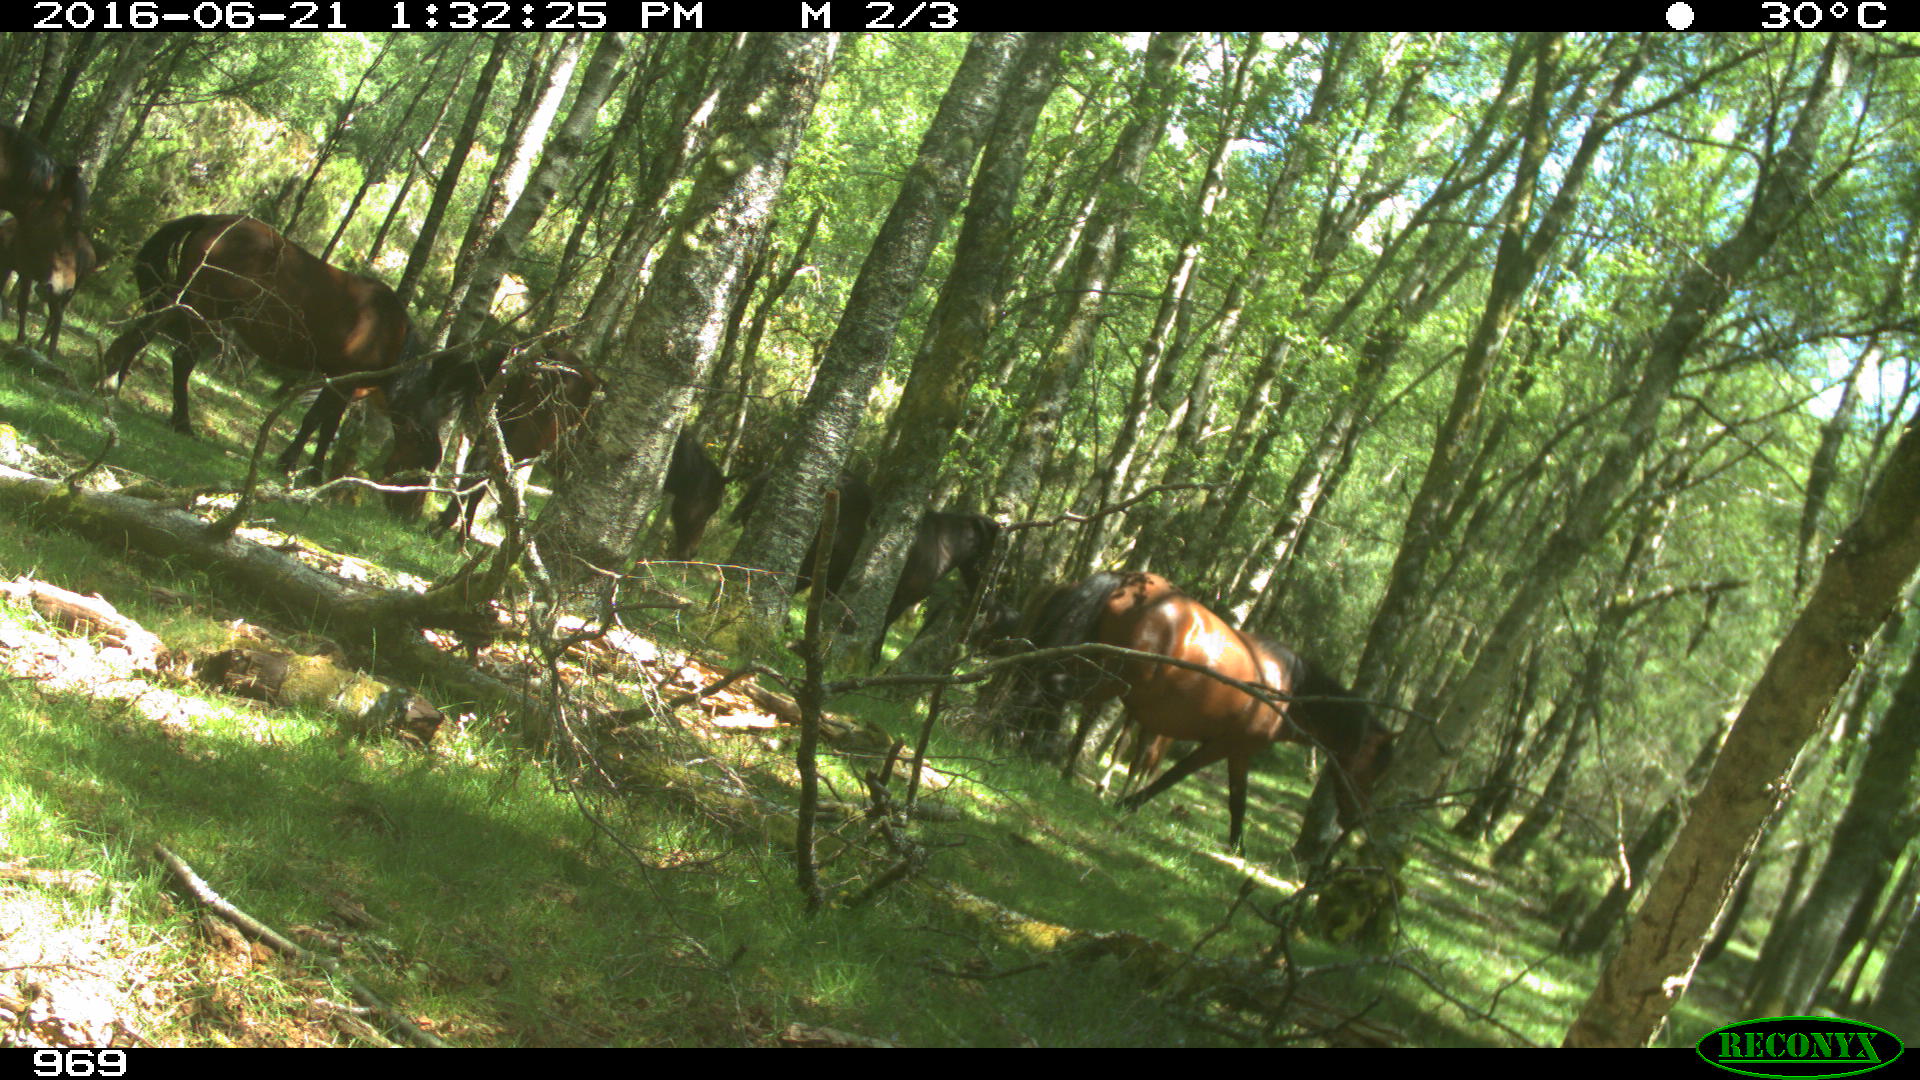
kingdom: Animalia
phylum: Chordata
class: Mammalia
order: Perissodactyla
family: Equidae
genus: Equus
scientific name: Equus caballus
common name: Horse
